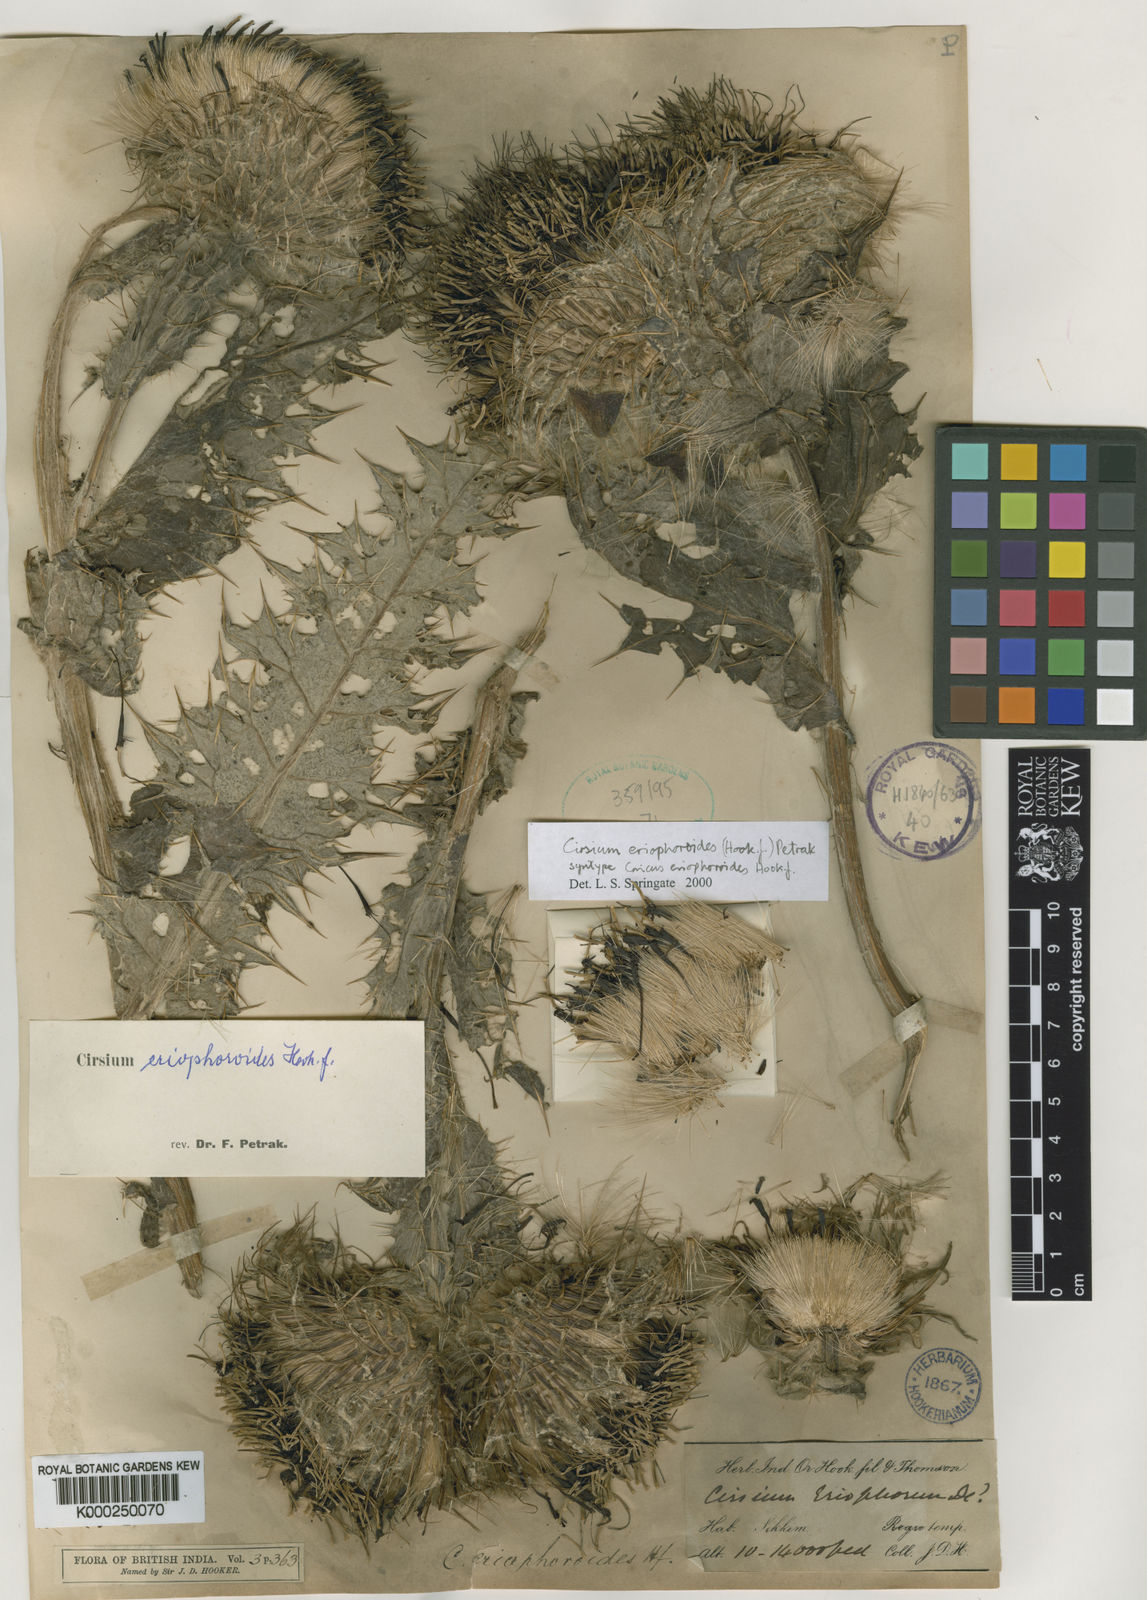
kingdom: Plantae
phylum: Tracheophyta
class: Magnoliopsida
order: Asterales
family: Asteraceae
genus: Cirsium
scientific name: Cirsium eriophoroides
